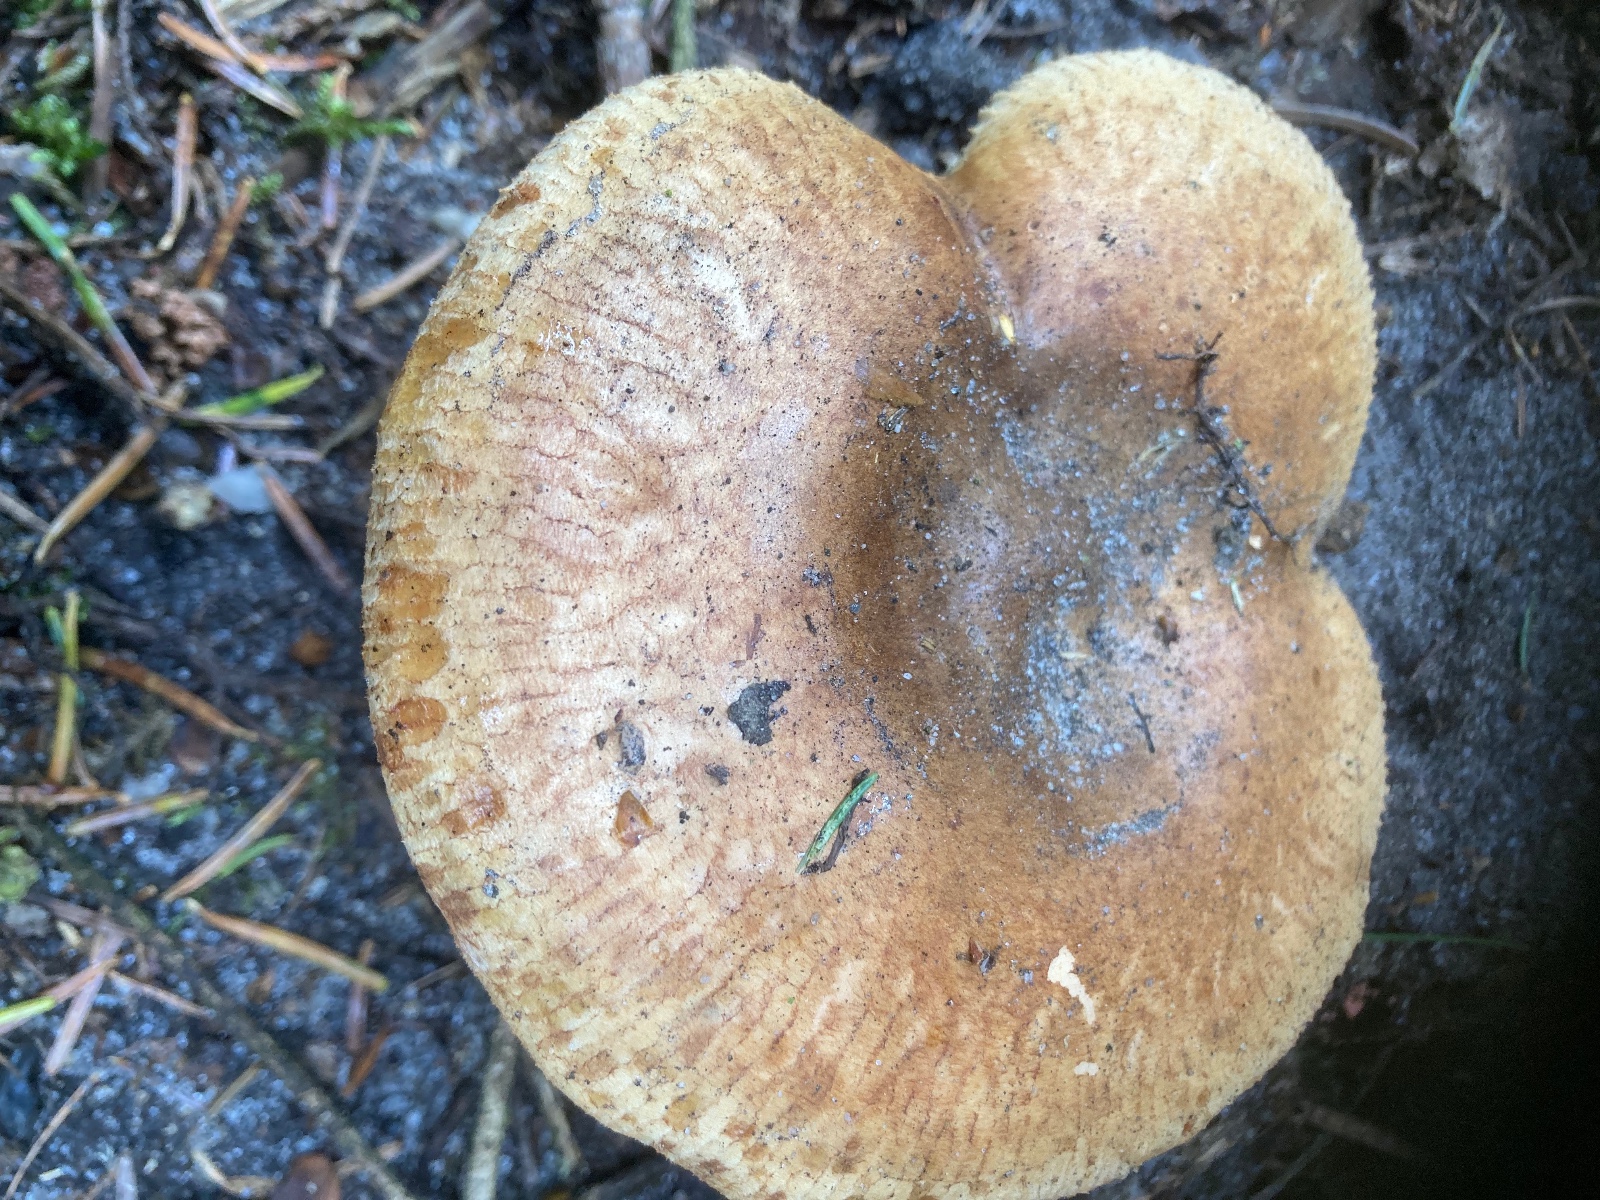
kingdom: Fungi
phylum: Basidiomycota
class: Agaricomycetes
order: Boletales
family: Paxillaceae
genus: Paxillus
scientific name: Paxillus involutus
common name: almindelig netbladhat
